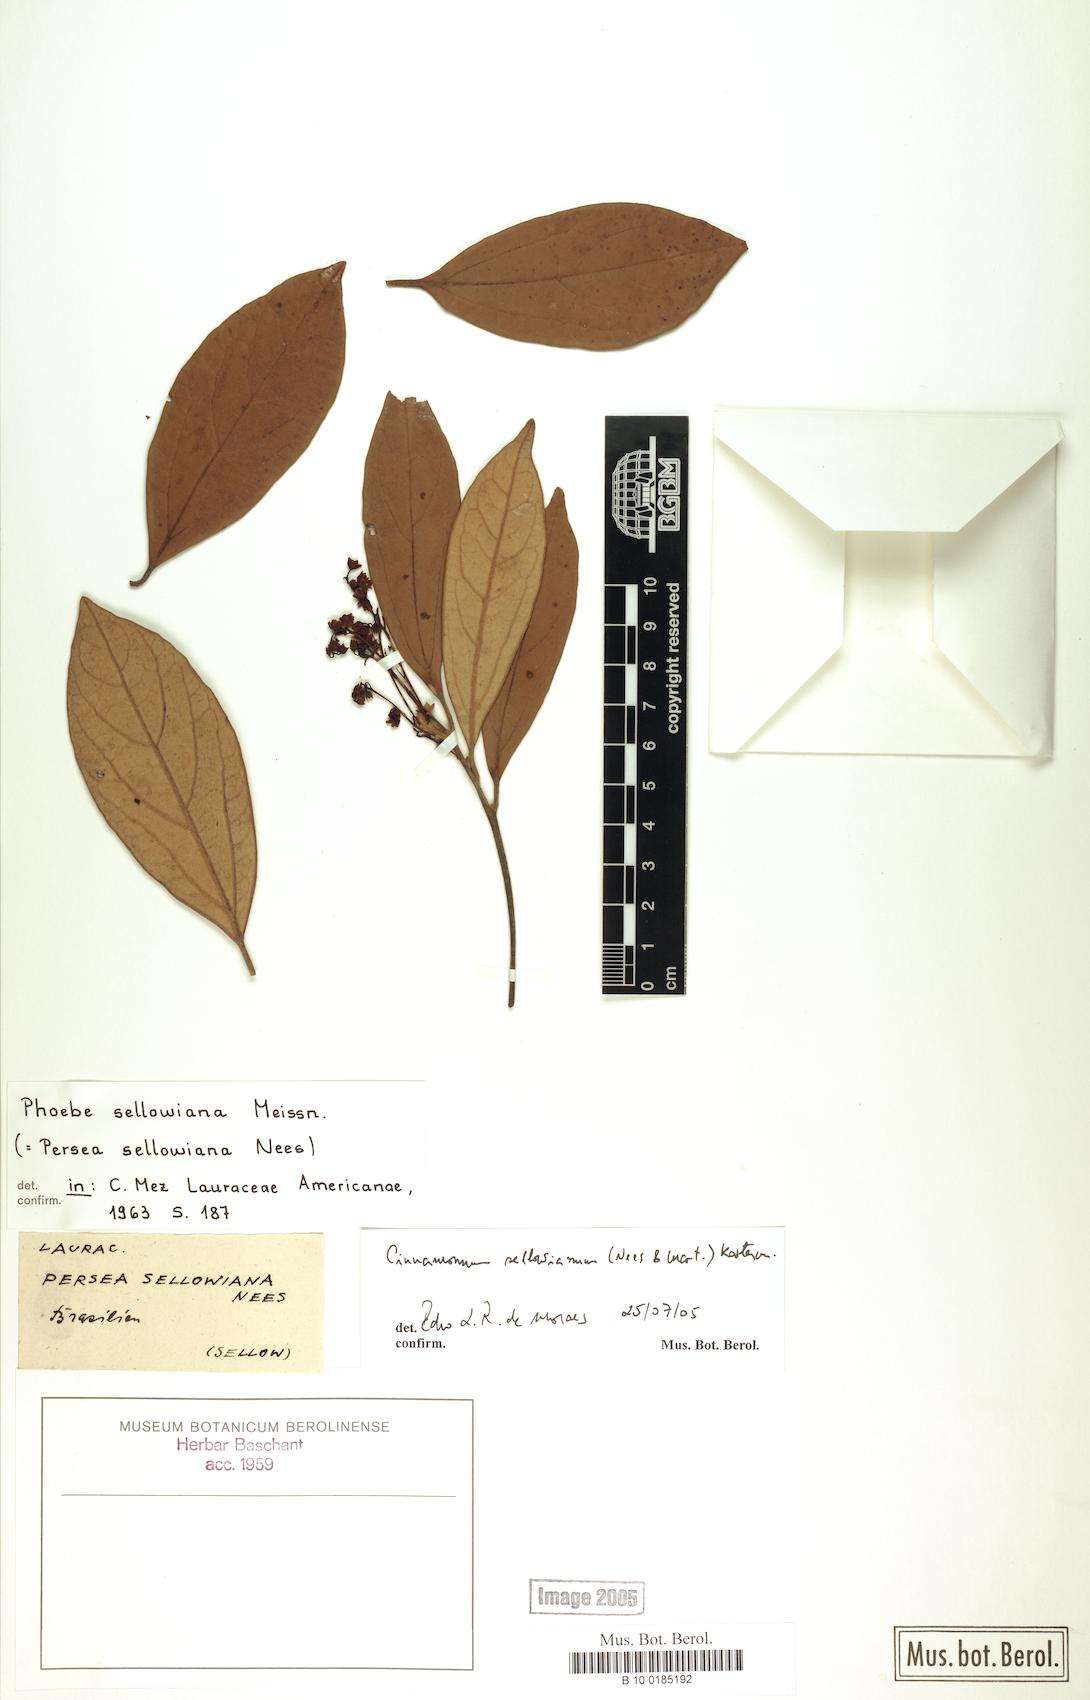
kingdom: Plantae
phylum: Tracheophyta
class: Magnoliopsida
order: Laurales
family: Lauraceae
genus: Aiouea
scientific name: Aiouea sellowiana
